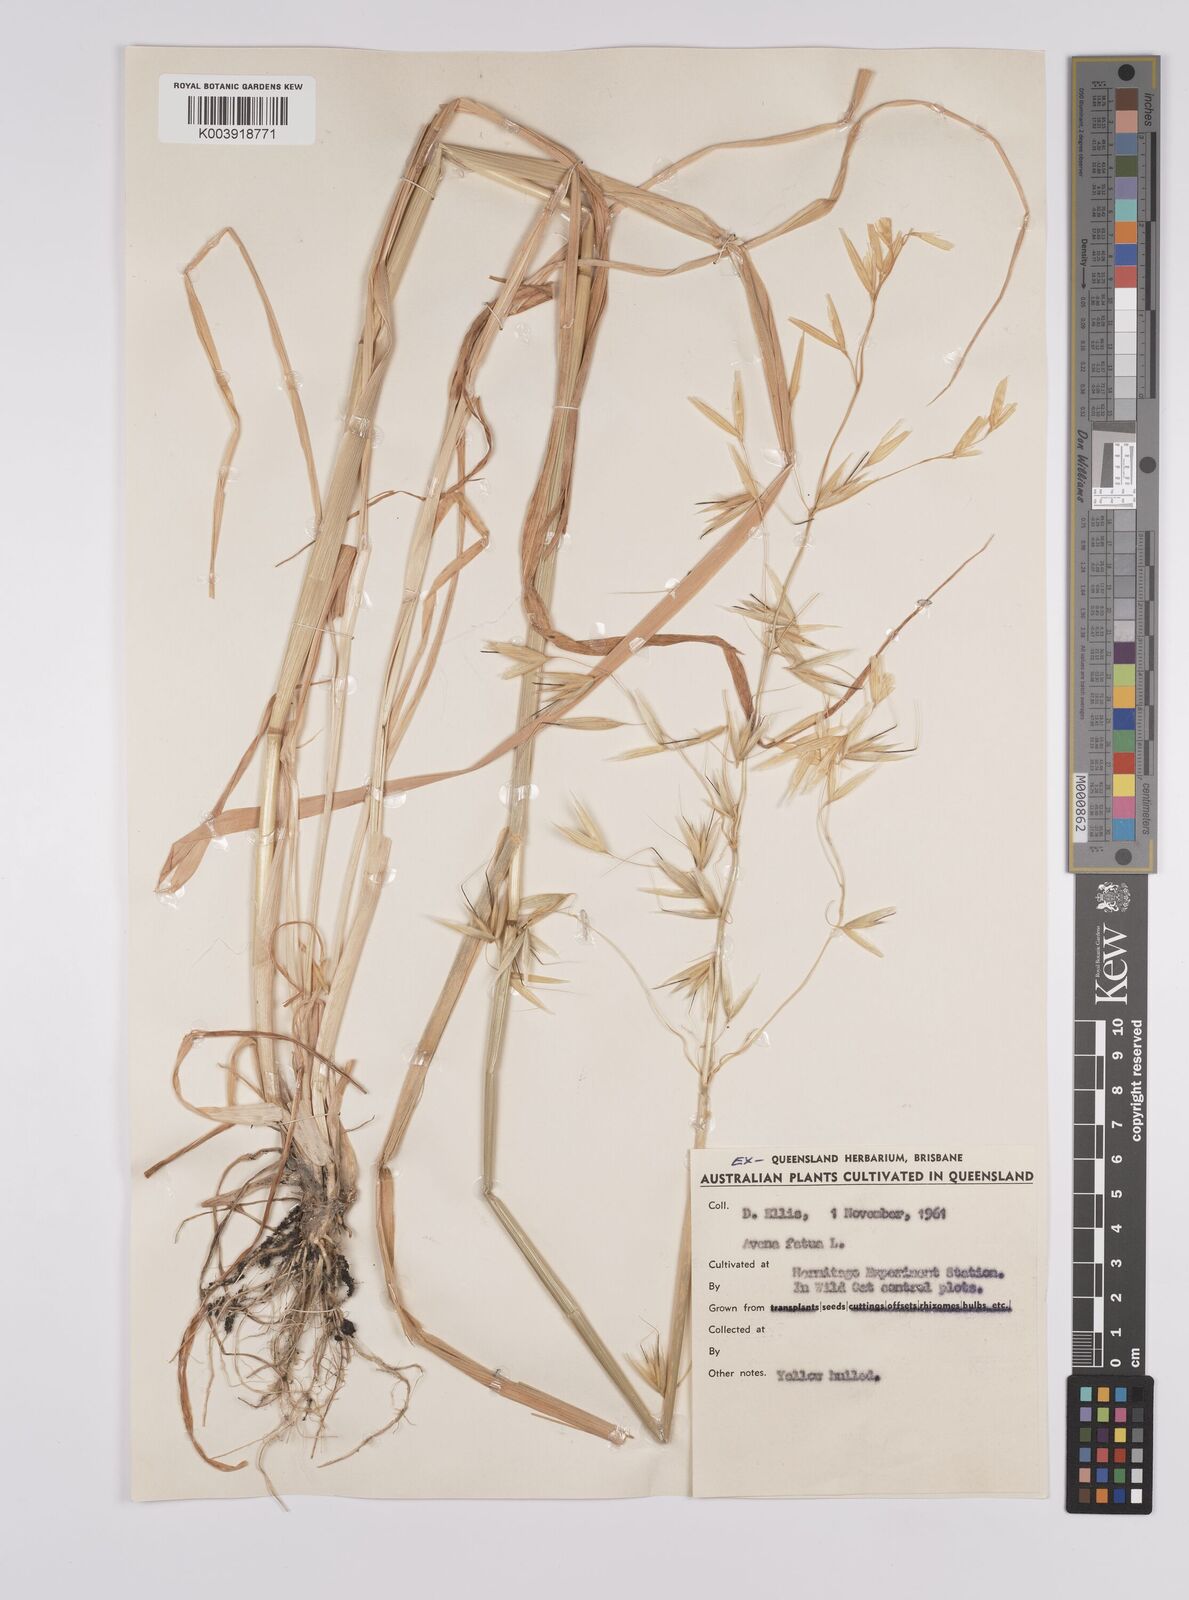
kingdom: Plantae
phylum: Tracheophyta
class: Liliopsida
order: Poales
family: Poaceae
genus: Avena
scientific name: Avena fatua
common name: Wild oat
